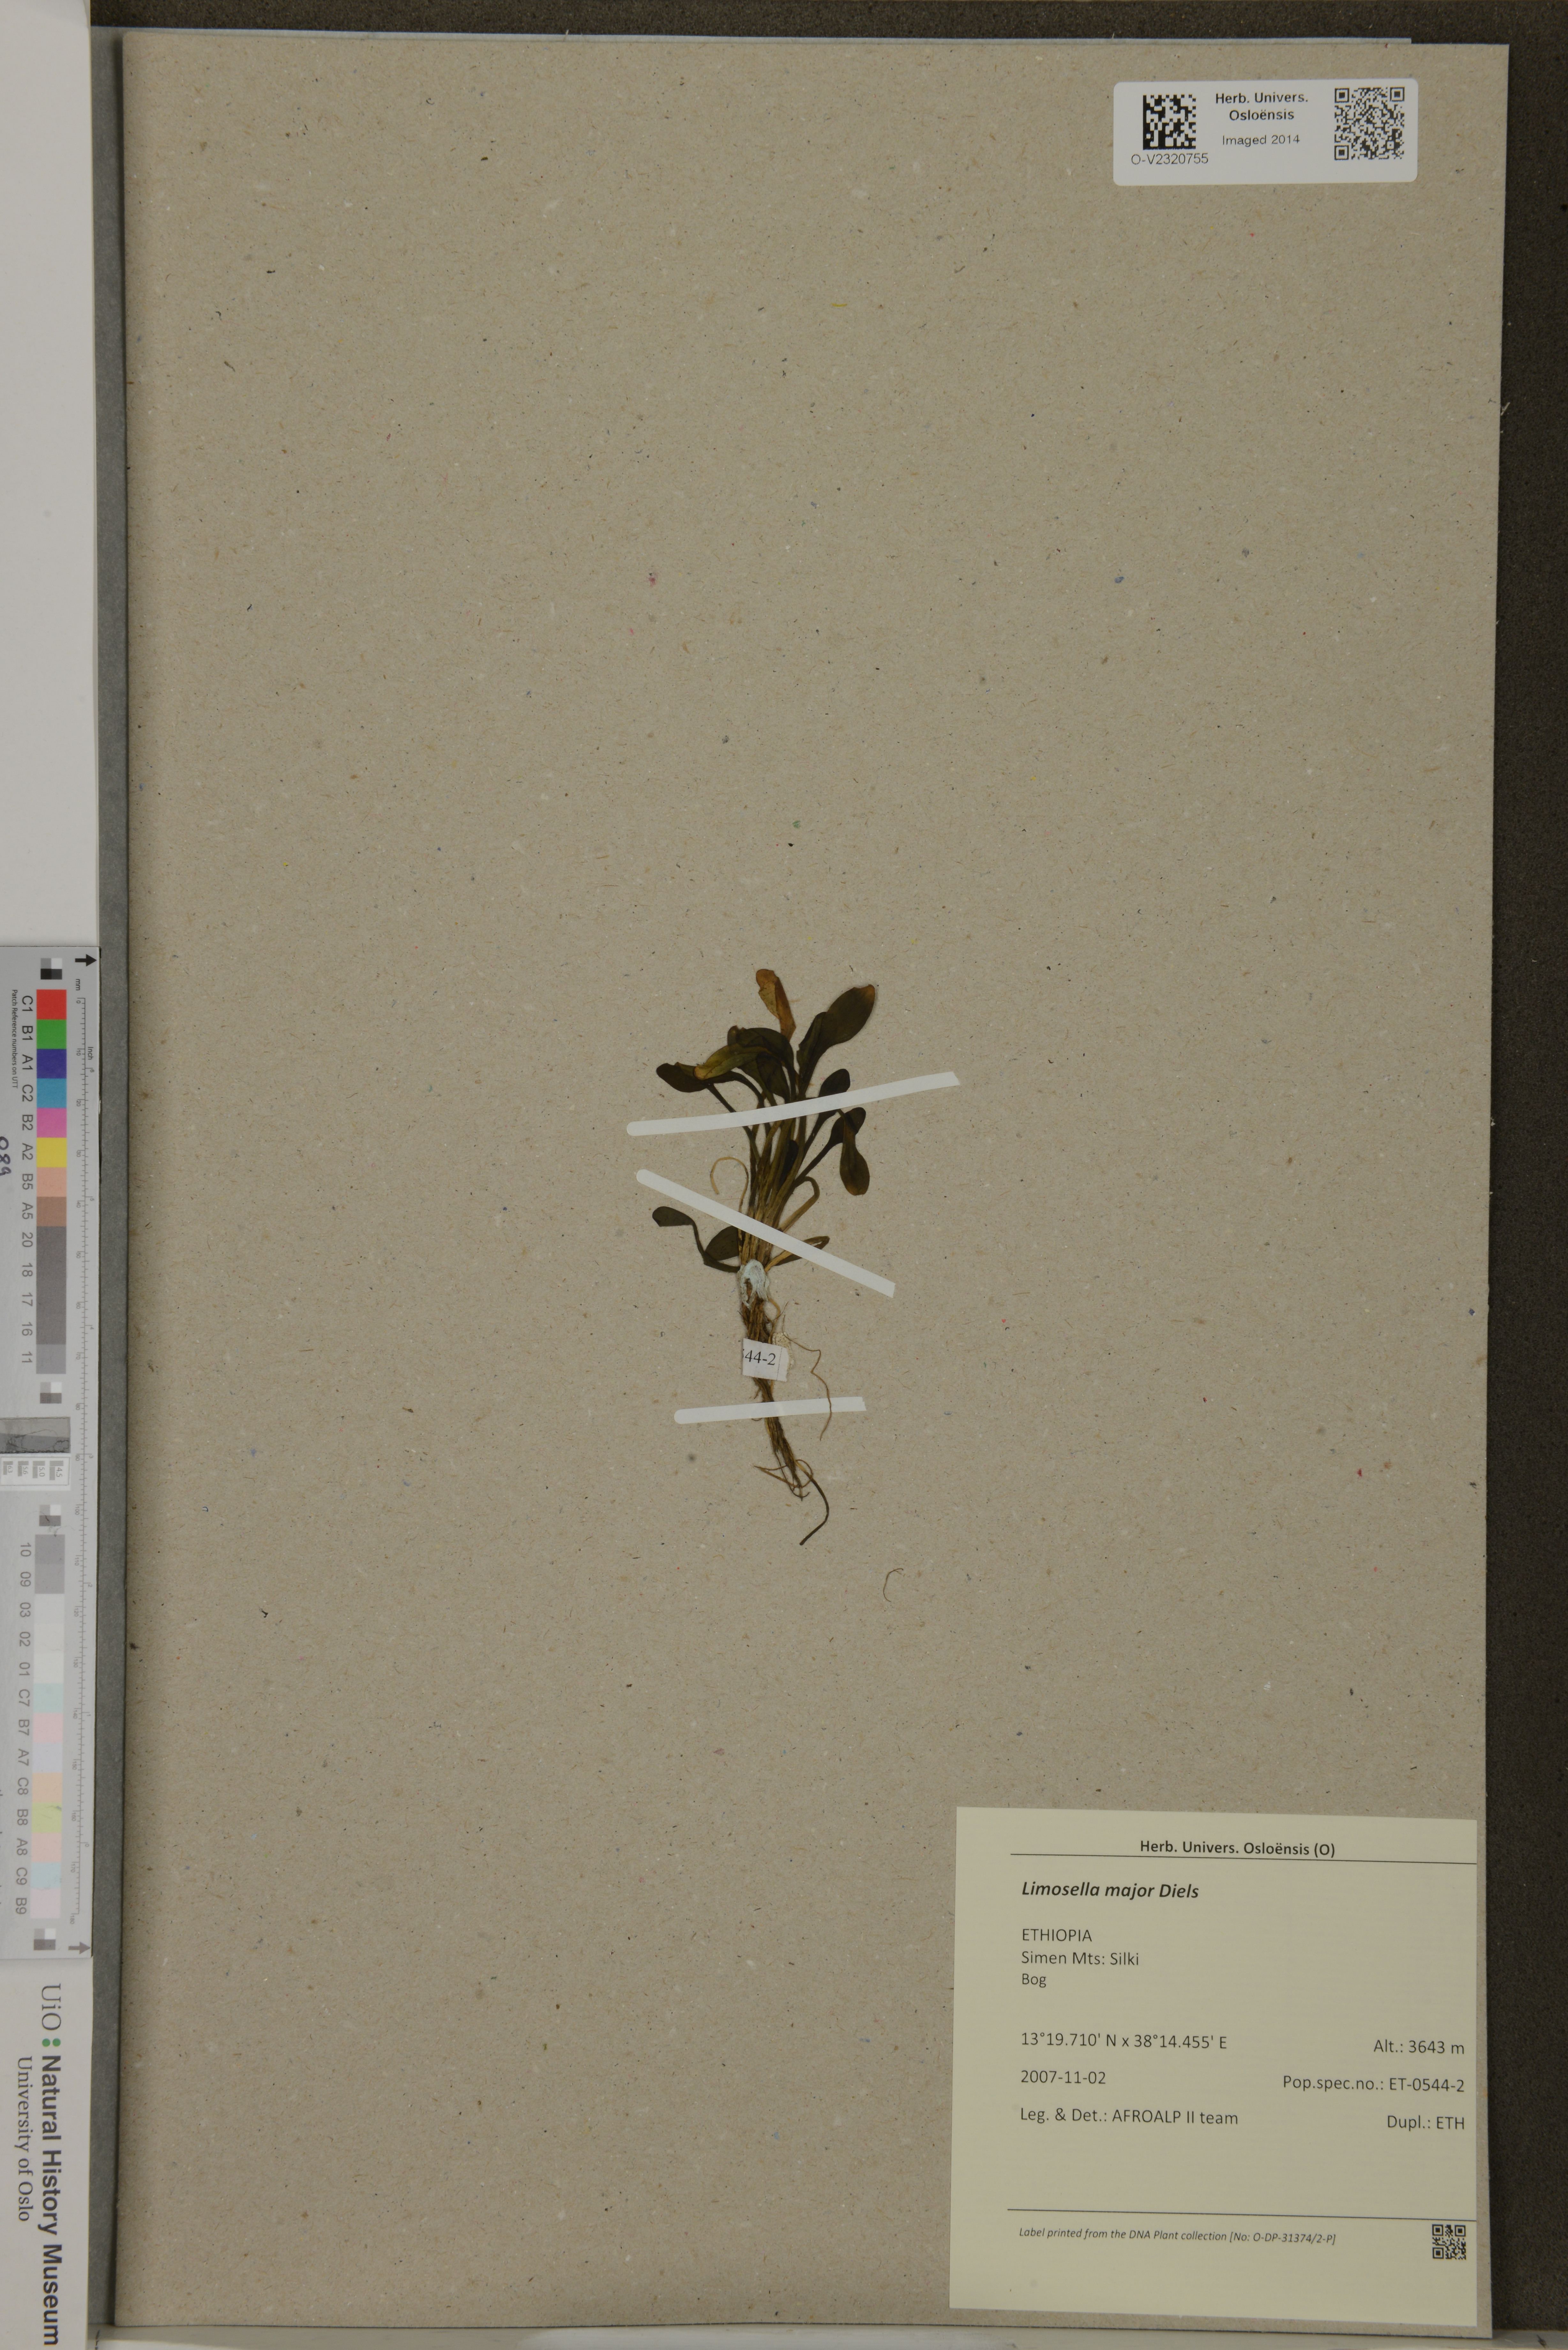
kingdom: Plantae
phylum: Tracheophyta
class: Magnoliopsida
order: Lamiales
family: Scrophulariaceae
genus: Limosella
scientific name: Limosella major
